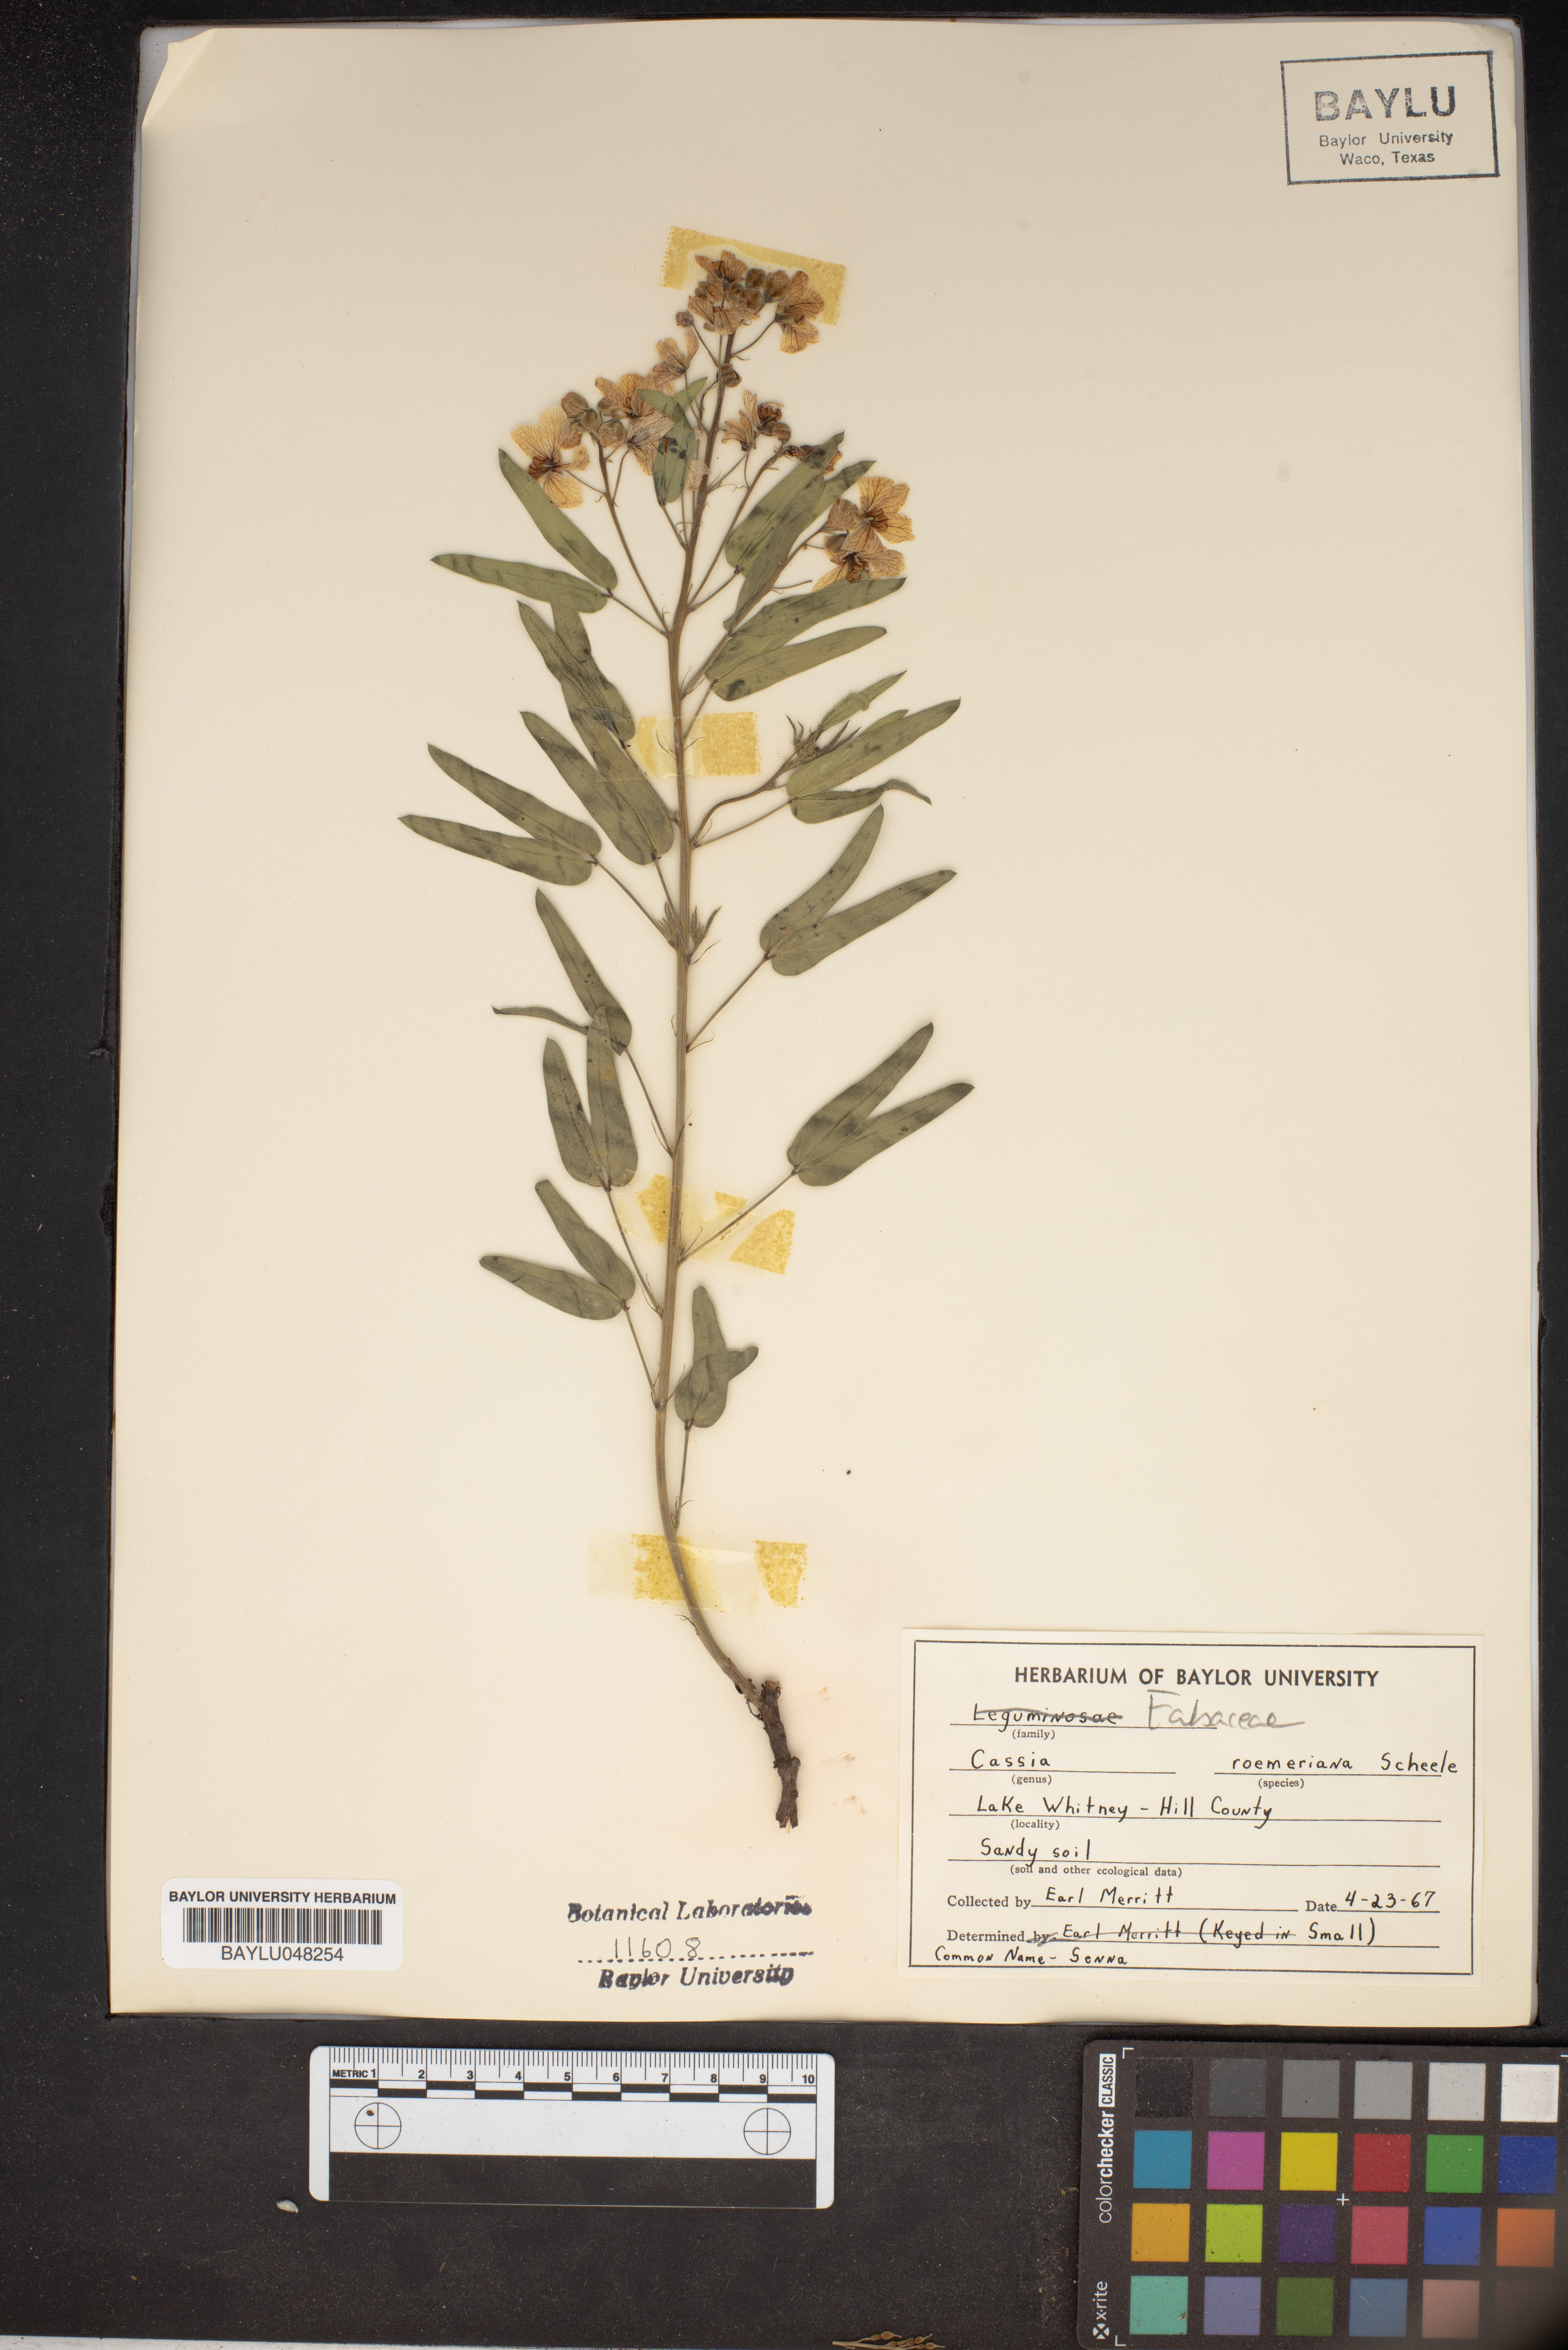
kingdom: Plantae
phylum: Tracheophyta
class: Magnoliopsida
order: Fabales
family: Fabaceae
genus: Senna
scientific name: Senna roemeriana
